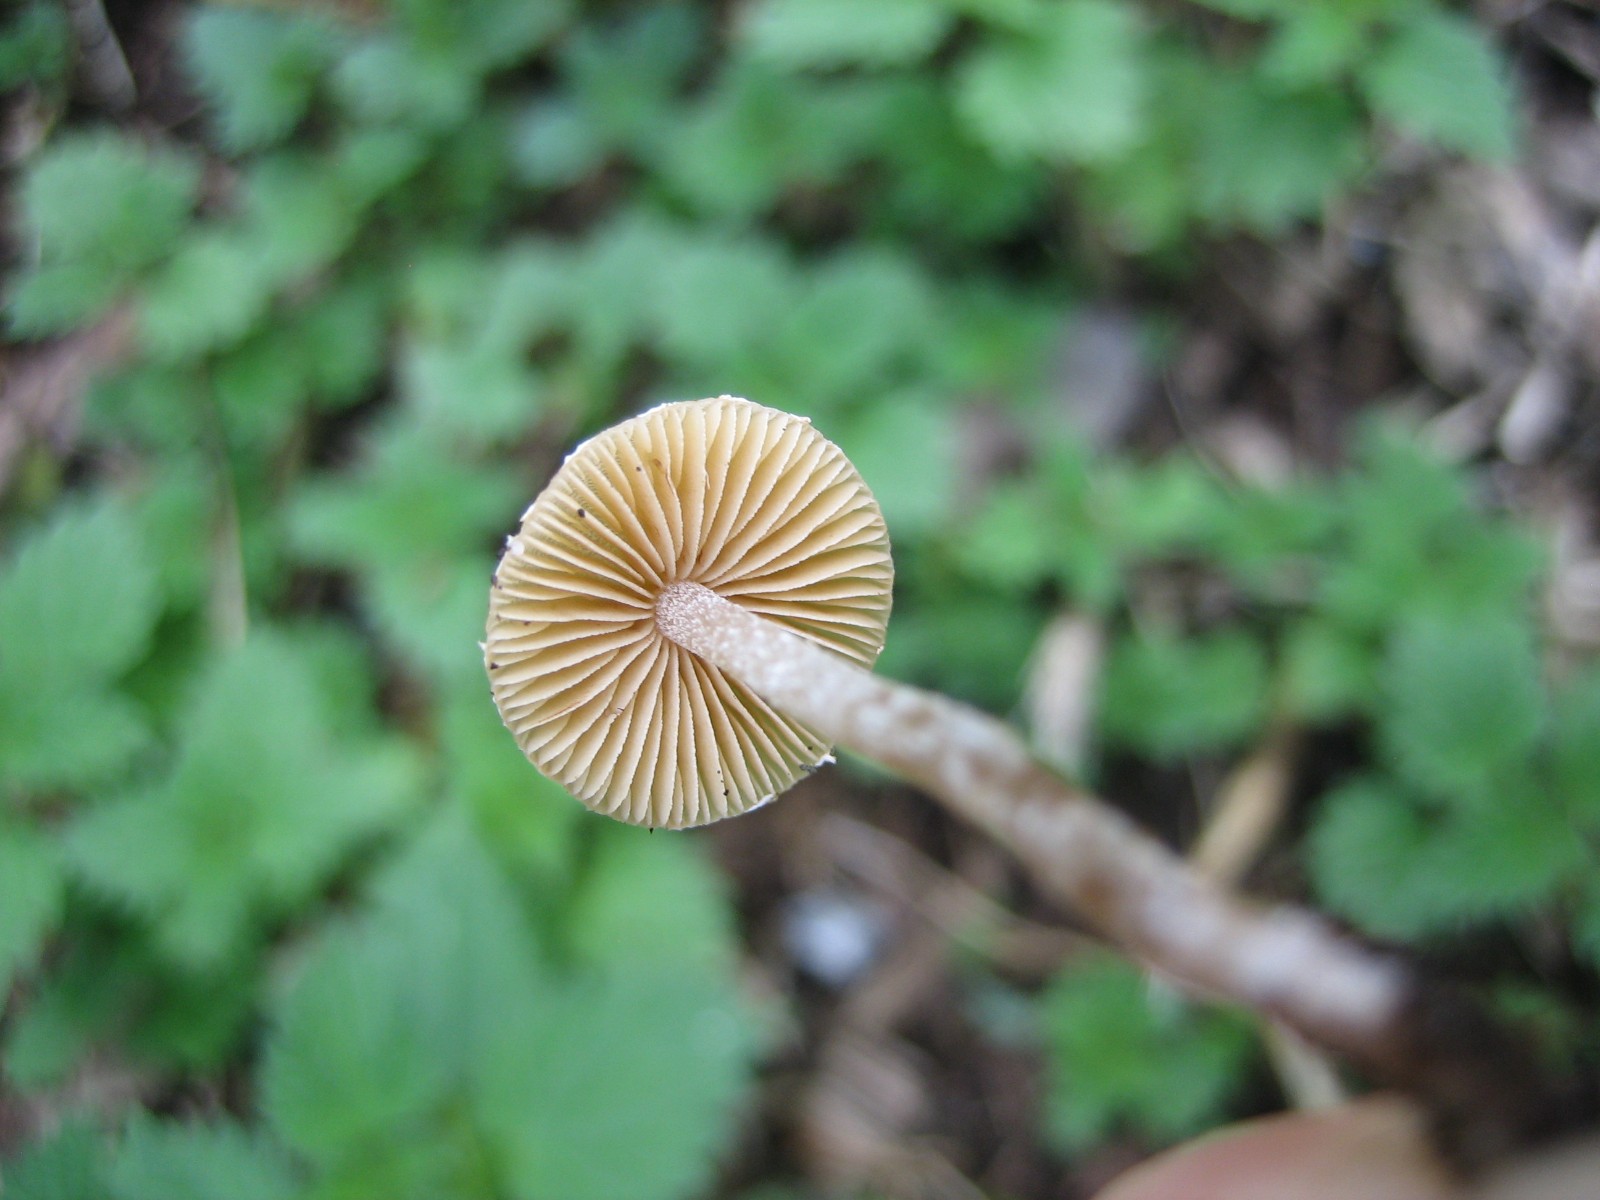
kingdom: Fungi
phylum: Basidiomycota
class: Agaricomycetes
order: Agaricales
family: Bolbitiaceae
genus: Pholiotina
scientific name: Pholiotina
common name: dansehat
